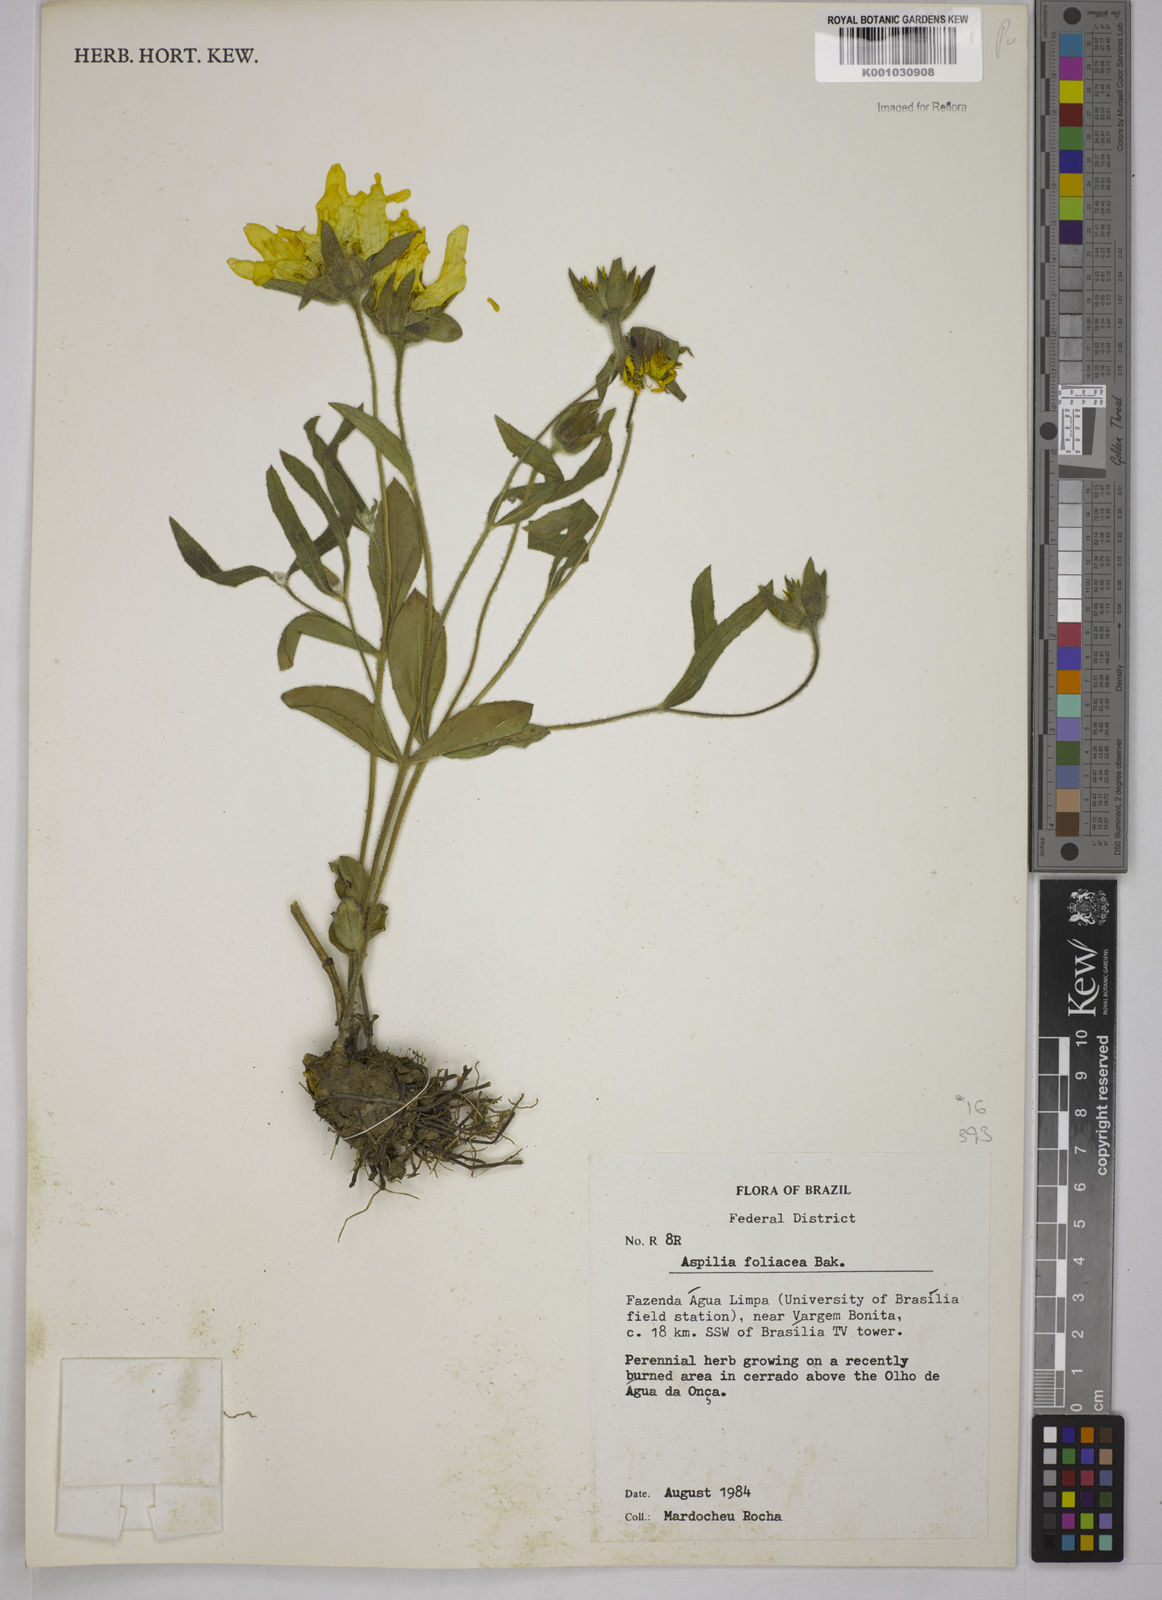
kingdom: Plantae
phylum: Tracheophyta
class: Magnoliopsida
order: Asterales
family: Asteraceae
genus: Wedelia
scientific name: Wedelia foliacea
